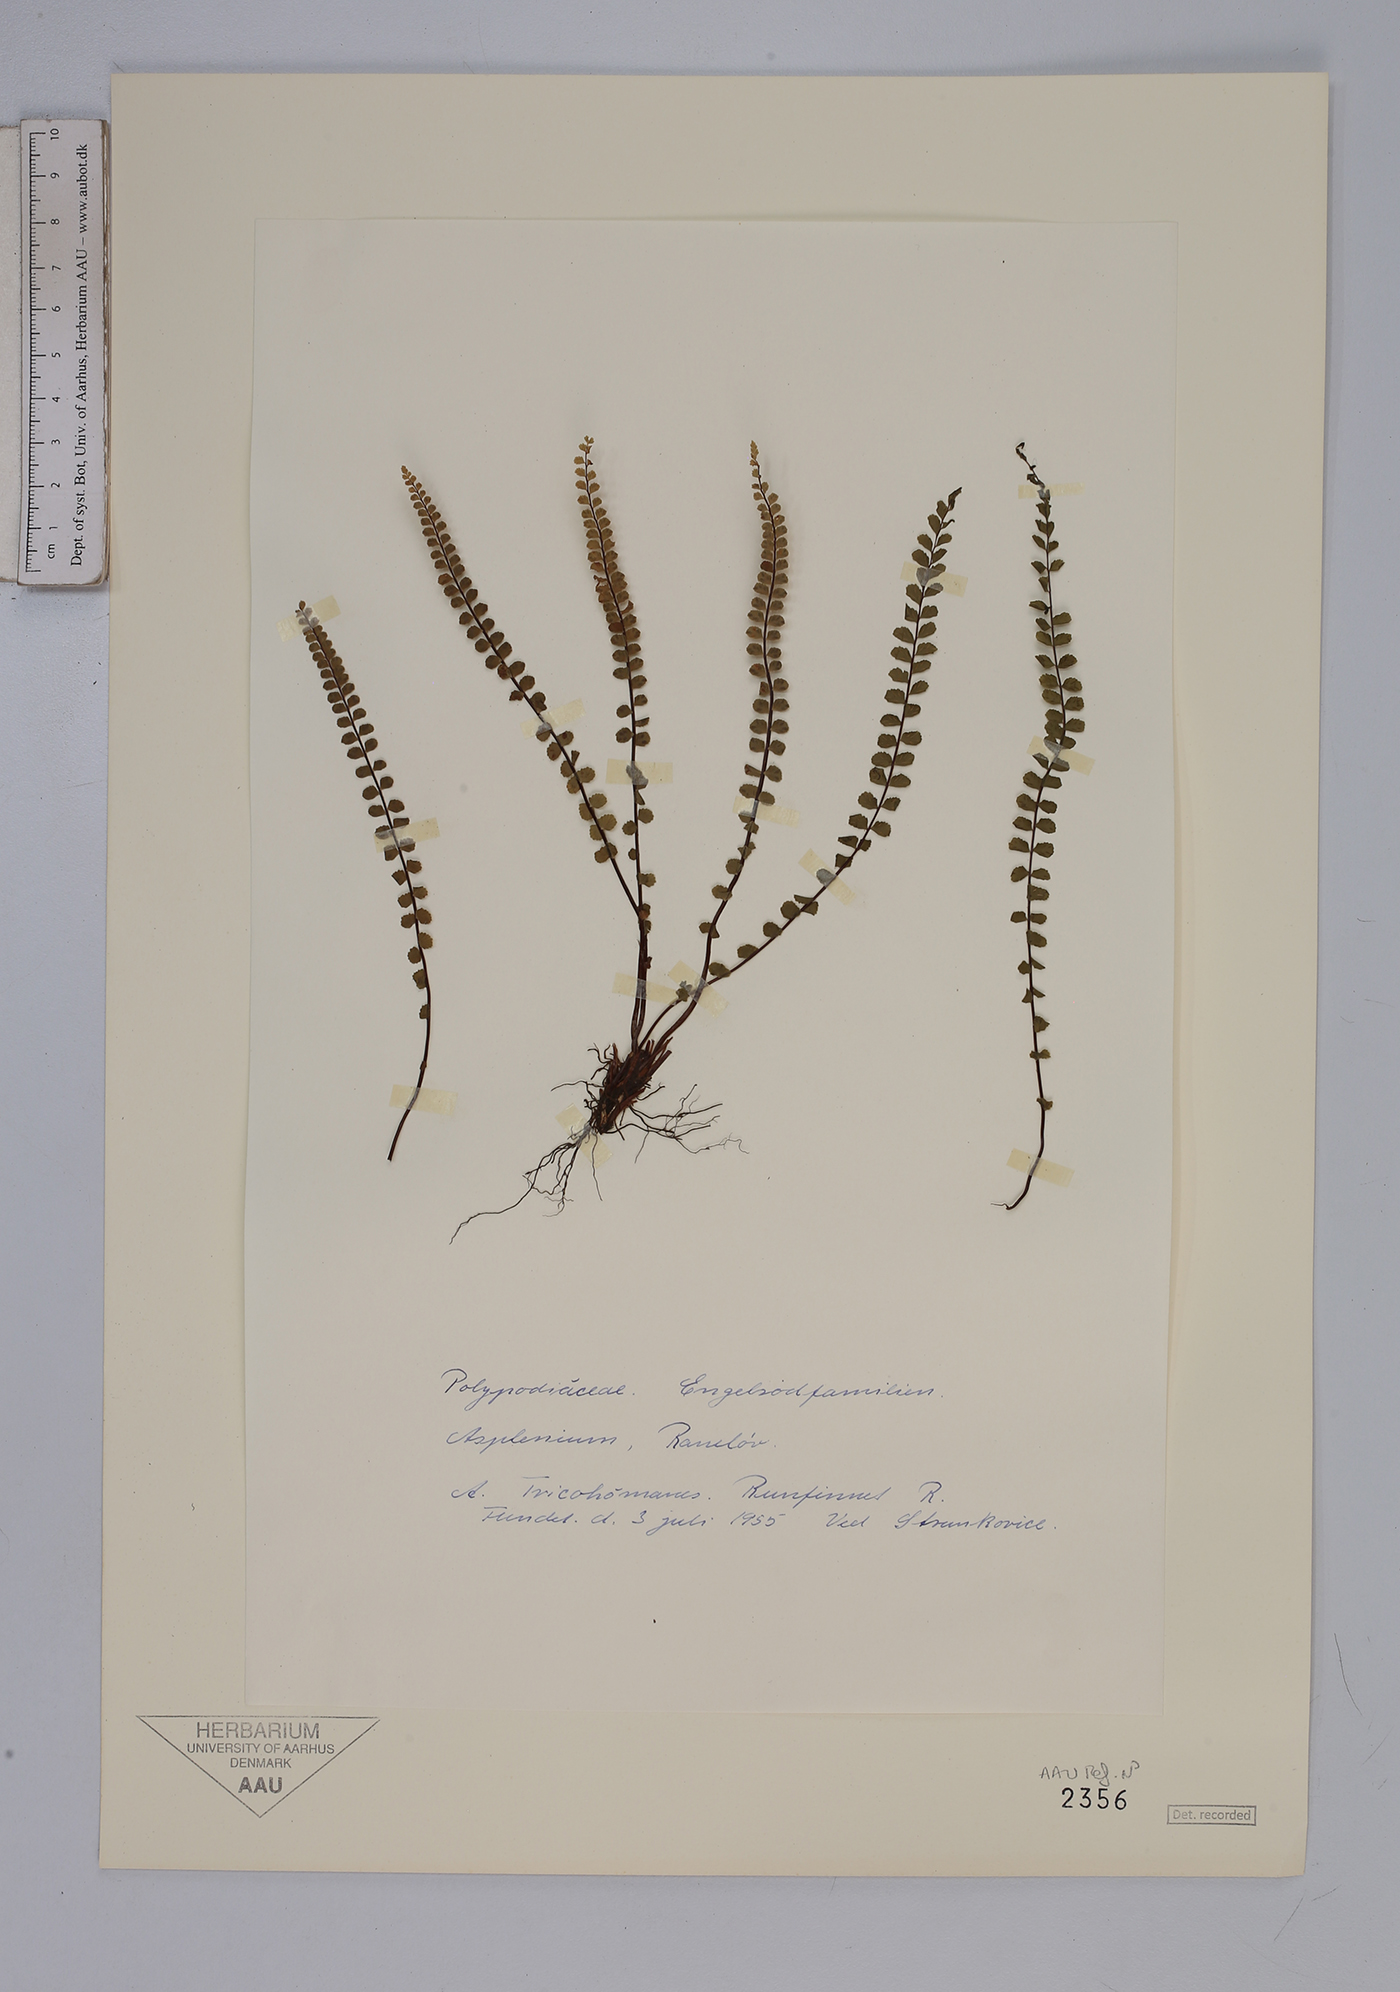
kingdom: Plantae
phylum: Tracheophyta
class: Polypodiopsida
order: Polypodiales
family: Aspleniaceae
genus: Asplenium
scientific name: Asplenium trichomanes
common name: Maidenhair spleenwort
